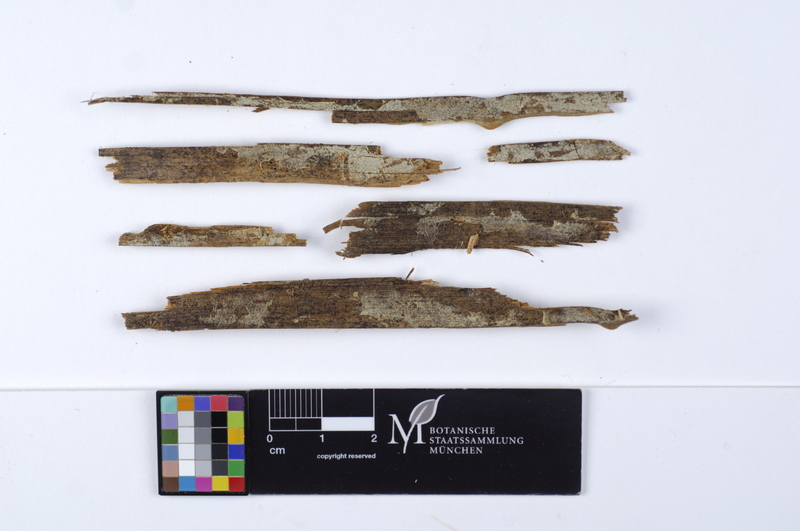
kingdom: Plantae
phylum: Tracheophyta
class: Pinopsida
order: Pinales
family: Pinaceae
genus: Picea
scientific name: Picea
